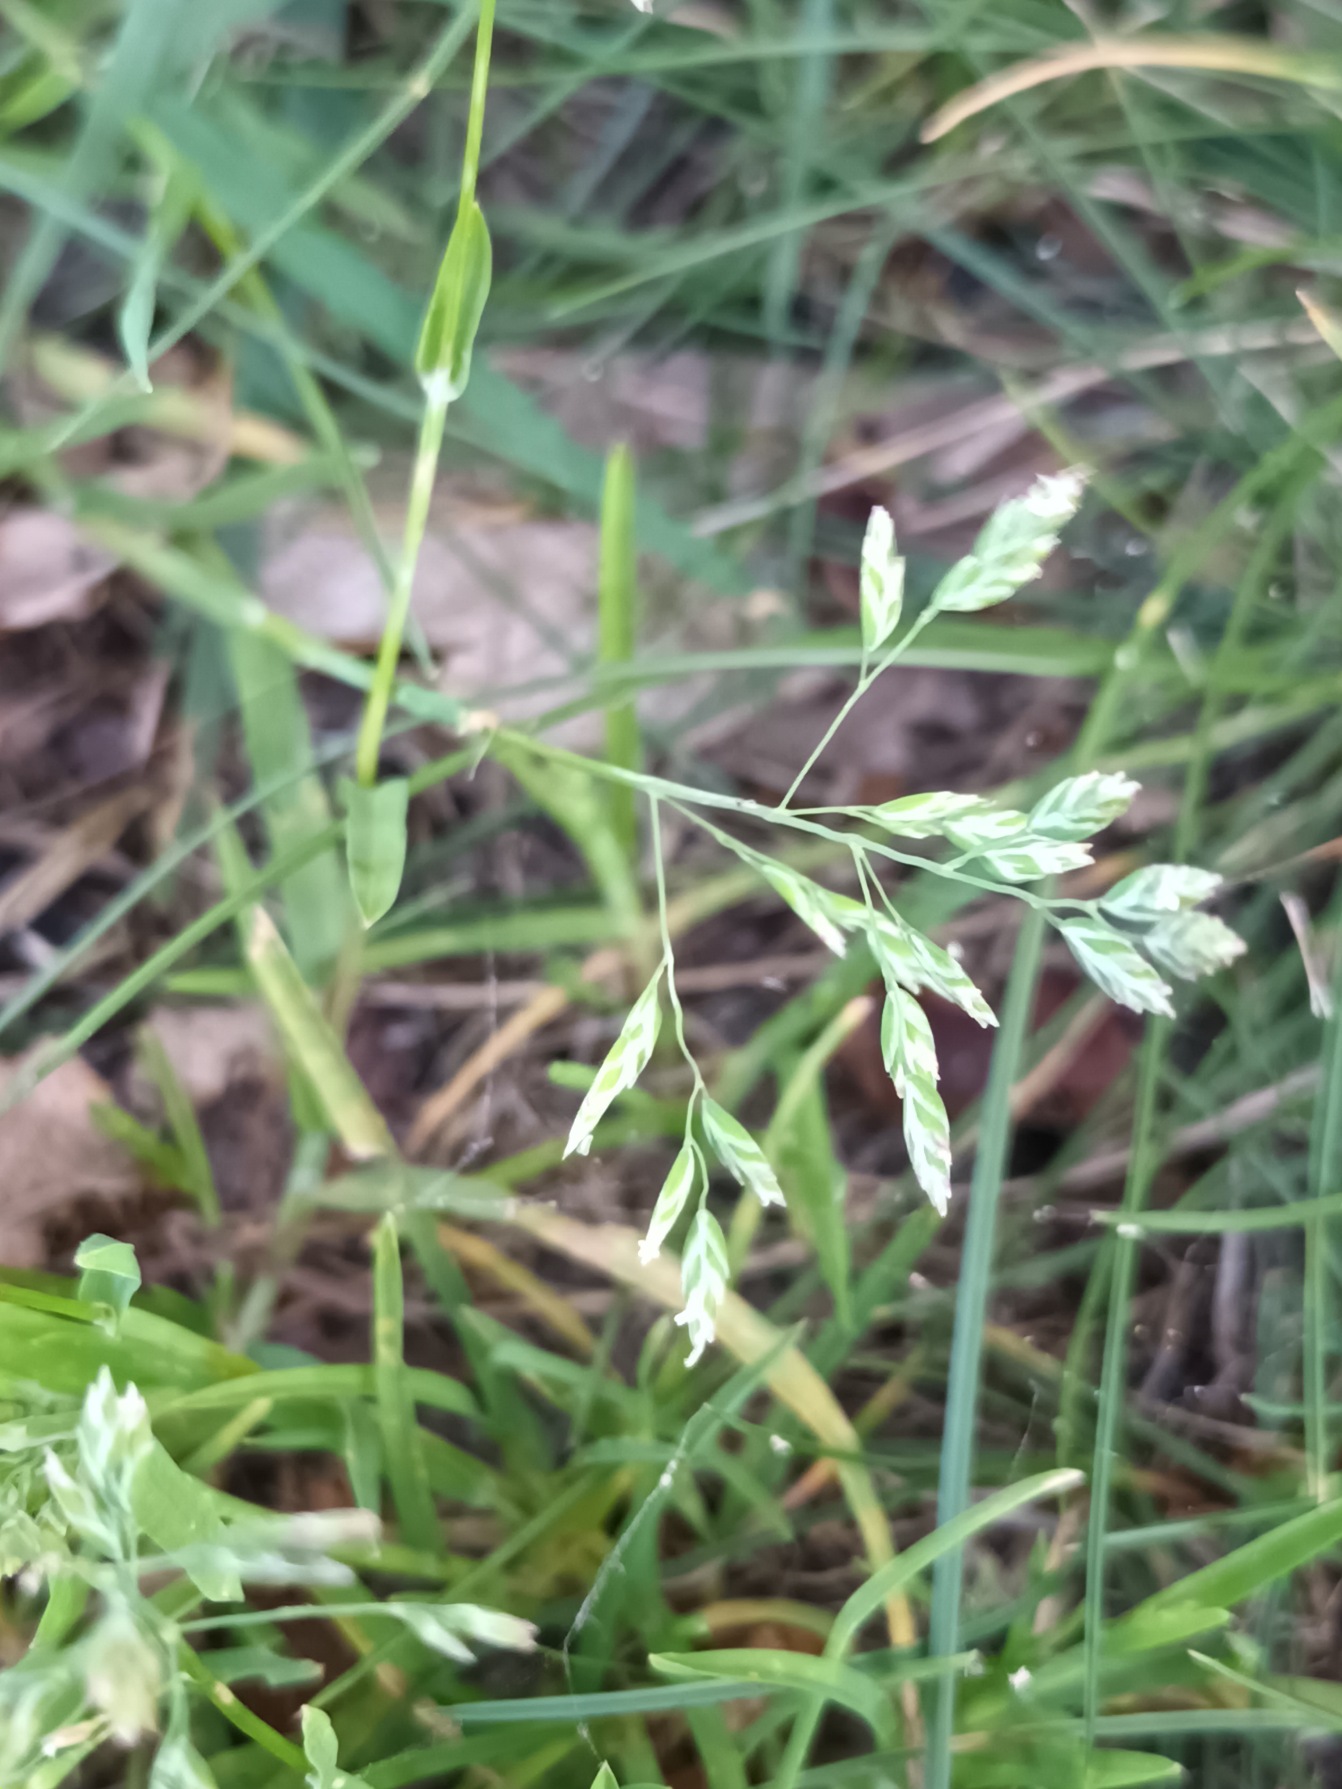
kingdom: Plantae
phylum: Tracheophyta
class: Liliopsida
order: Poales
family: Poaceae
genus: Poa
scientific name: Poa annua
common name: Enårig rapgræs
